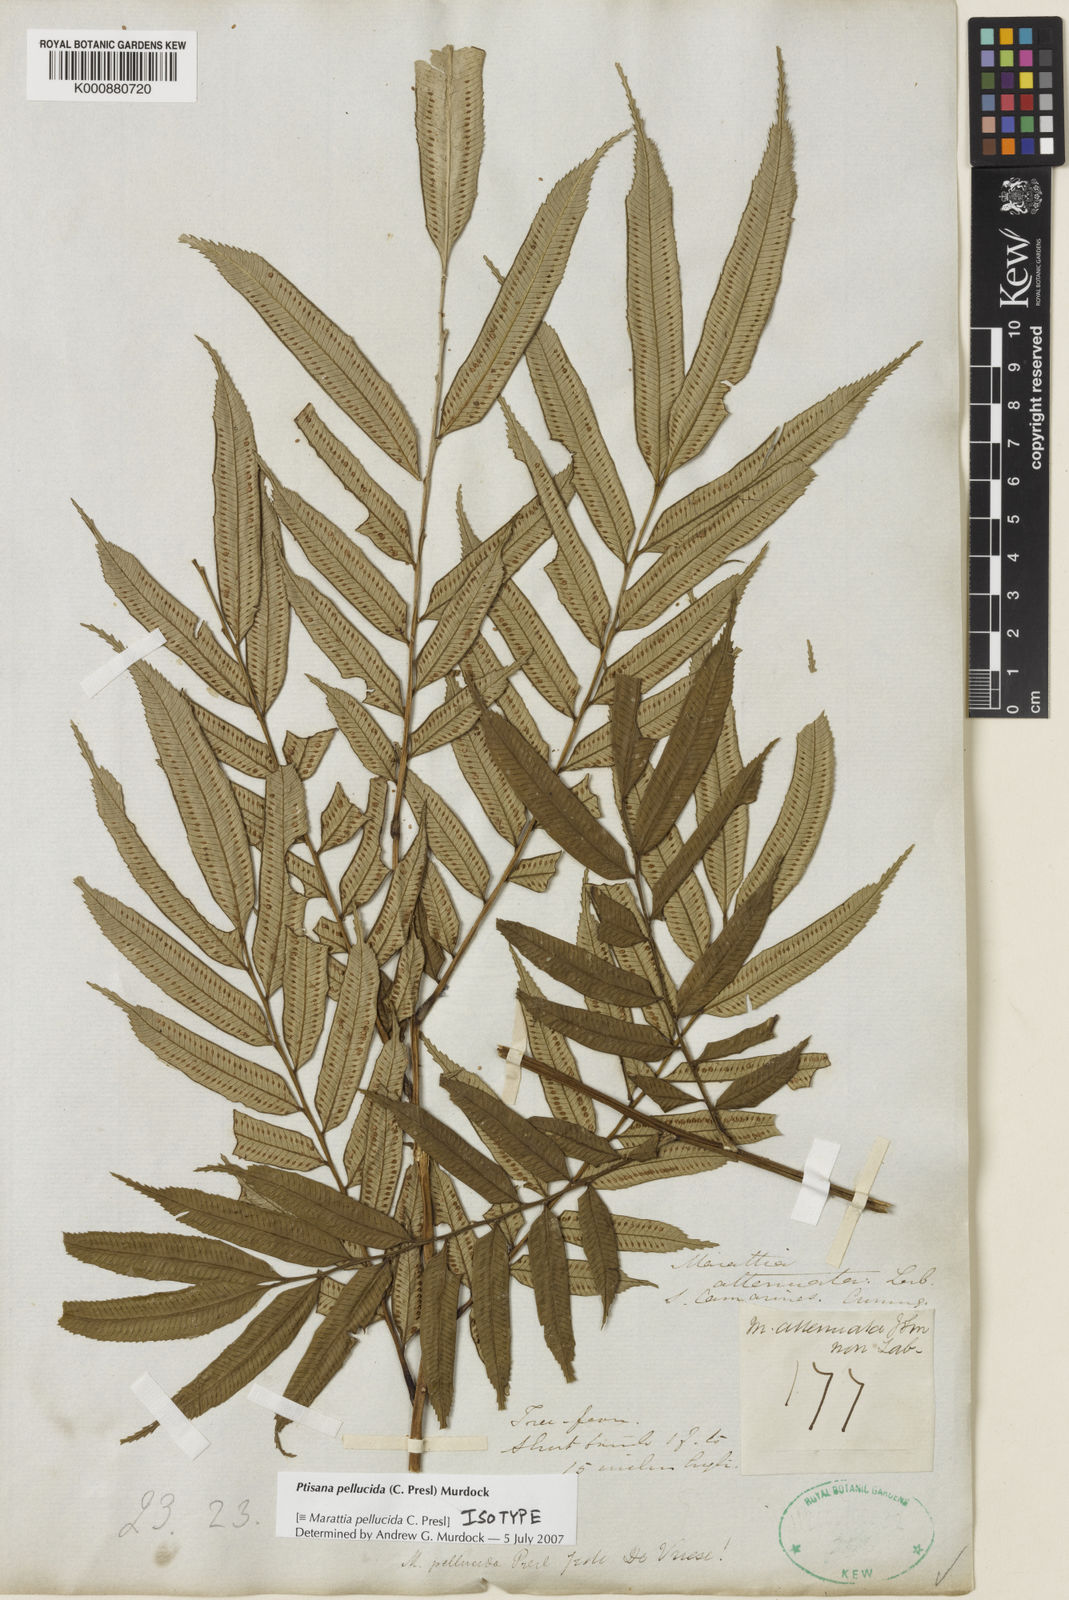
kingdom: Plantae
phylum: Tracheophyta
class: Polypodiopsida
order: Marattiales
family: Marattiaceae
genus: Ptisana
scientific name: Ptisana pellucida
